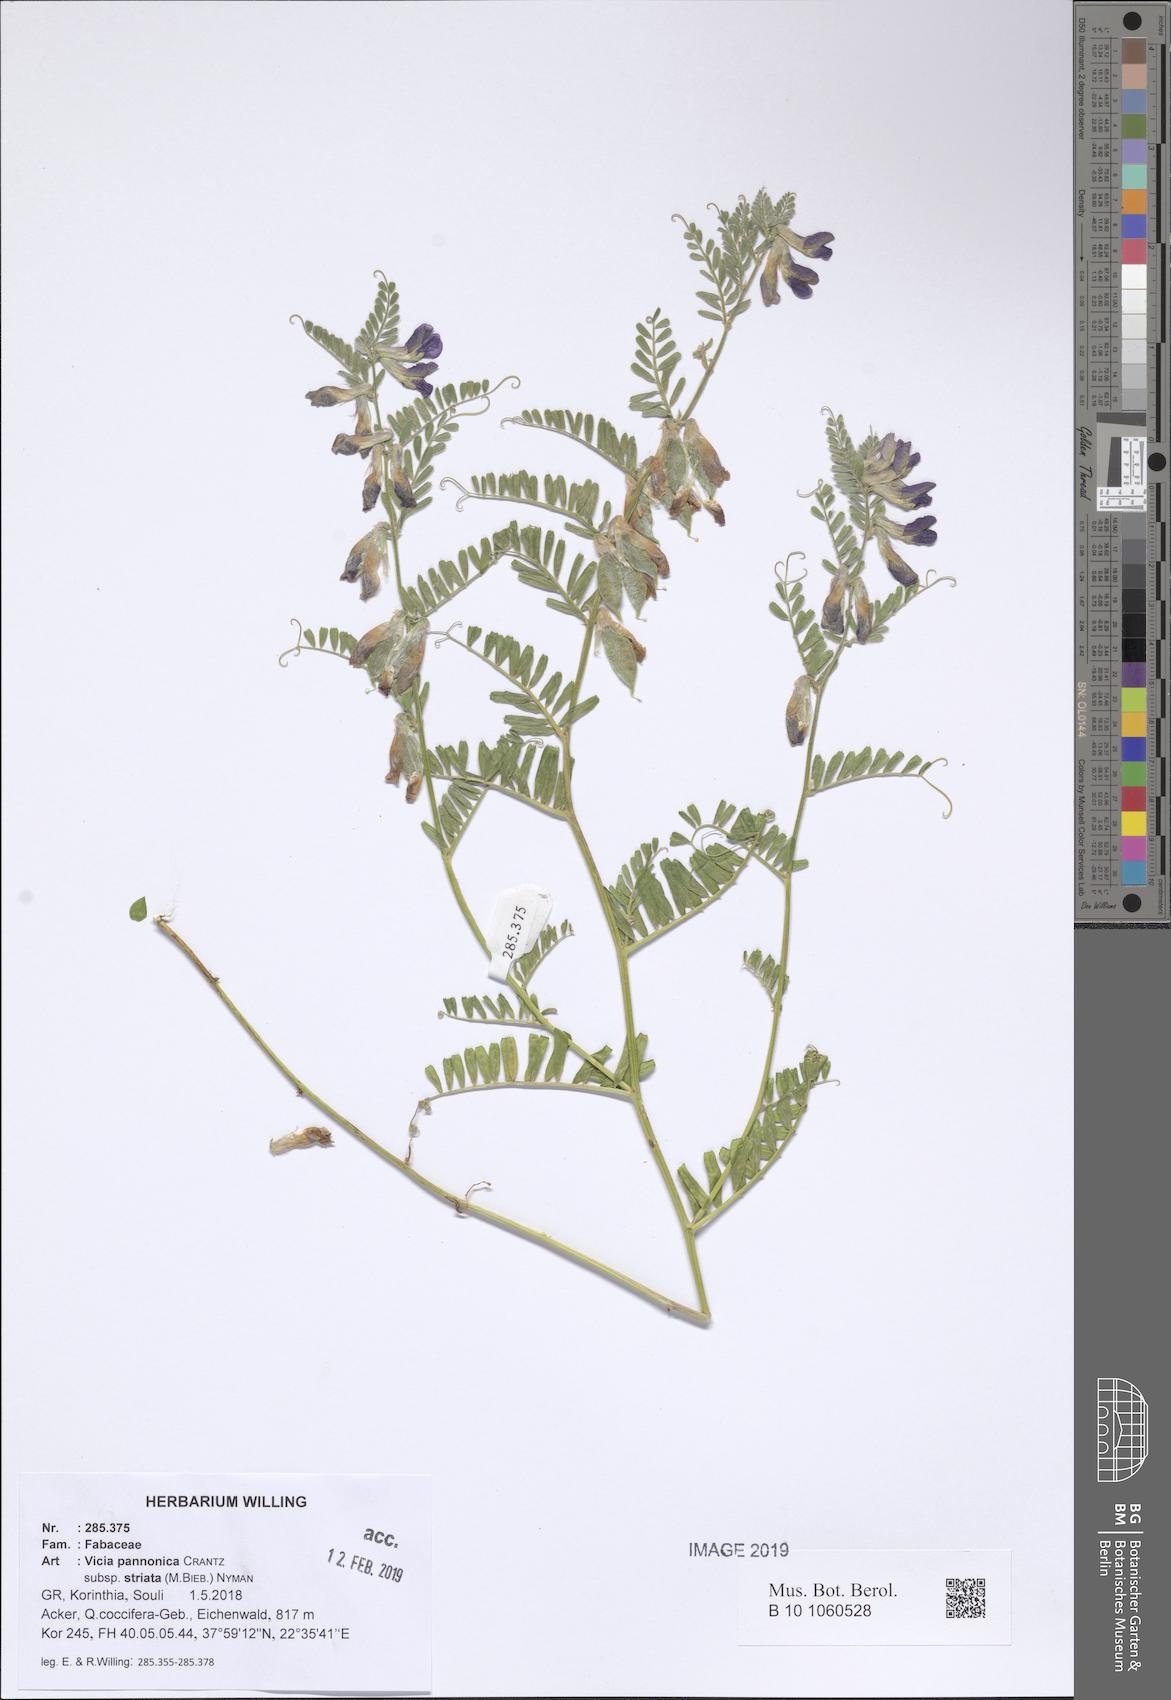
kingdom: Plantae
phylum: Tracheophyta
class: Magnoliopsida
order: Fabales
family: Fabaceae
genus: Vicia
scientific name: Vicia pannonica
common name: Hungarian vetch
